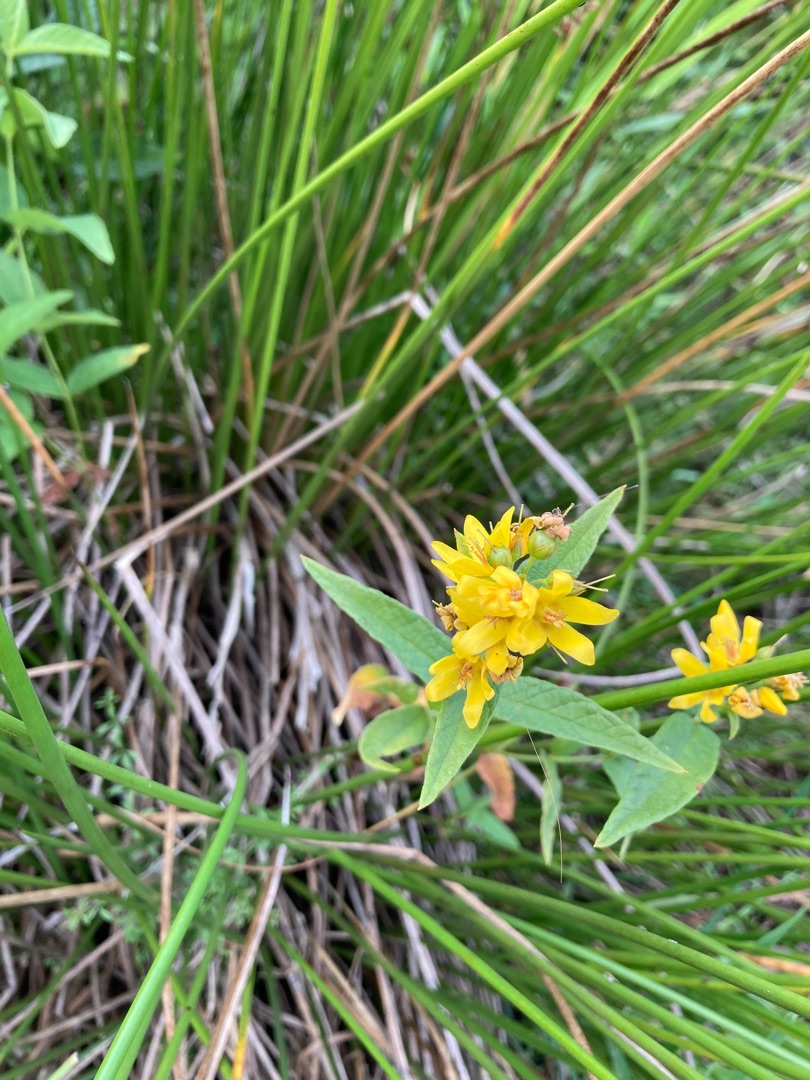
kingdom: Plantae
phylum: Tracheophyta
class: Magnoliopsida
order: Ericales
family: Primulaceae
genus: Lysimachia
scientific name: Lysimachia vulgaris
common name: Almindelig fredløs
